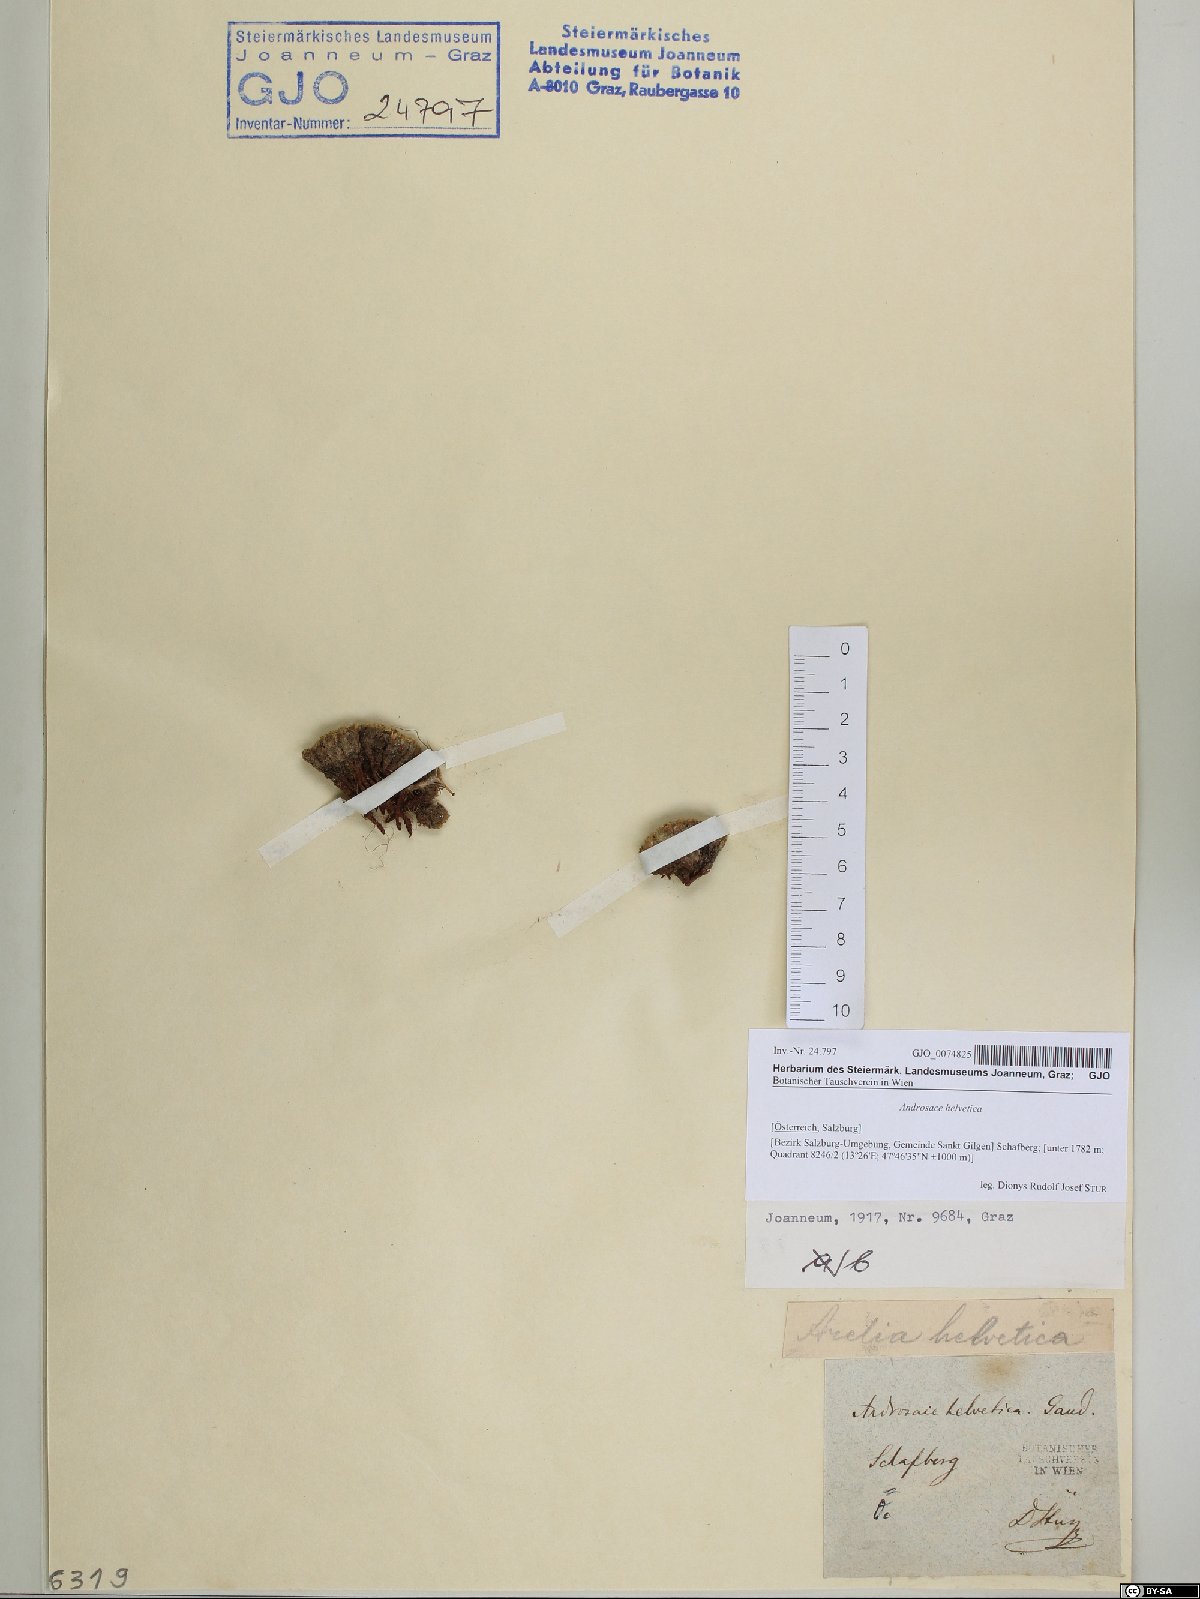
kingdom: Plantae
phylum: Tracheophyta
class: Magnoliopsida
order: Ericales
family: Primulaceae
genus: Androsace
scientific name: Androsace helvetica
